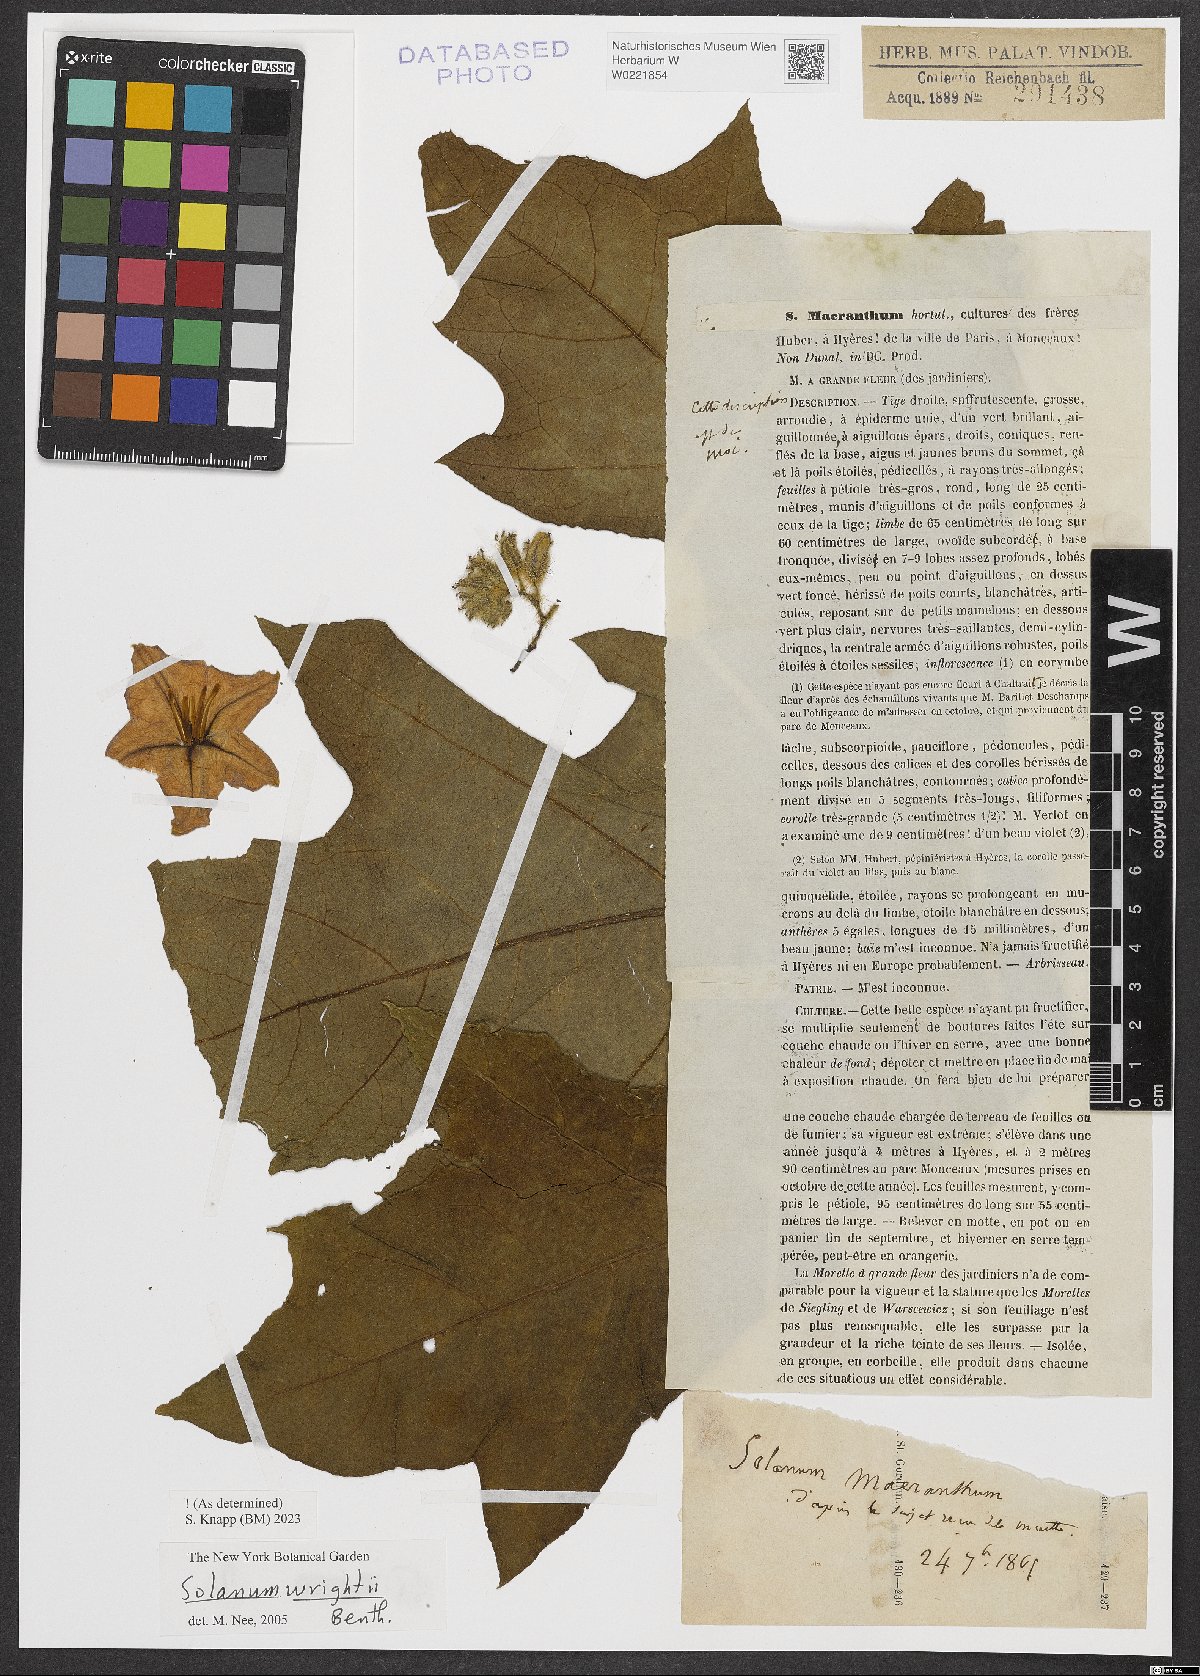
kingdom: Plantae
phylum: Tracheophyta
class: Magnoliopsida
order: Solanales
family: Solanaceae
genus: Solanum
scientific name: Solanum wrightii
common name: Brazilian potato-tree
